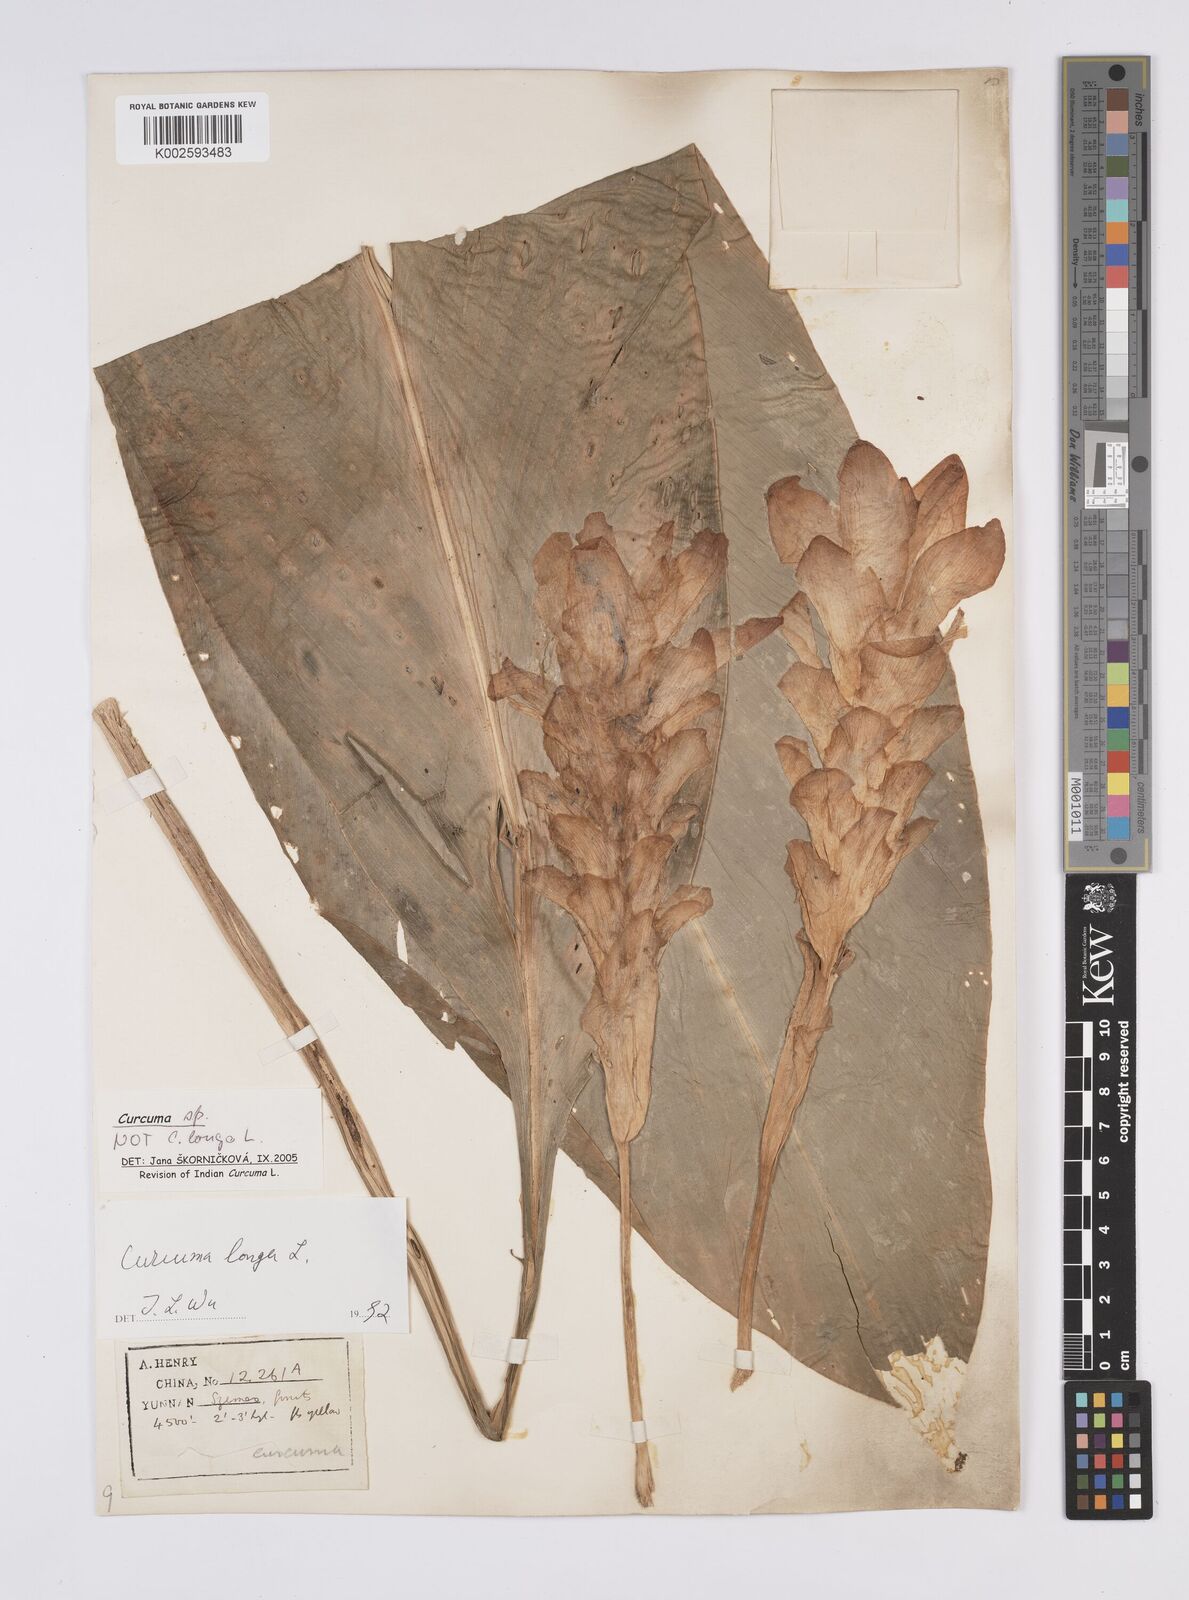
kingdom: Plantae
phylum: Tracheophyta
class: Liliopsida
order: Zingiberales
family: Zingiberaceae
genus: Curcuma
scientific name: Curcuma
